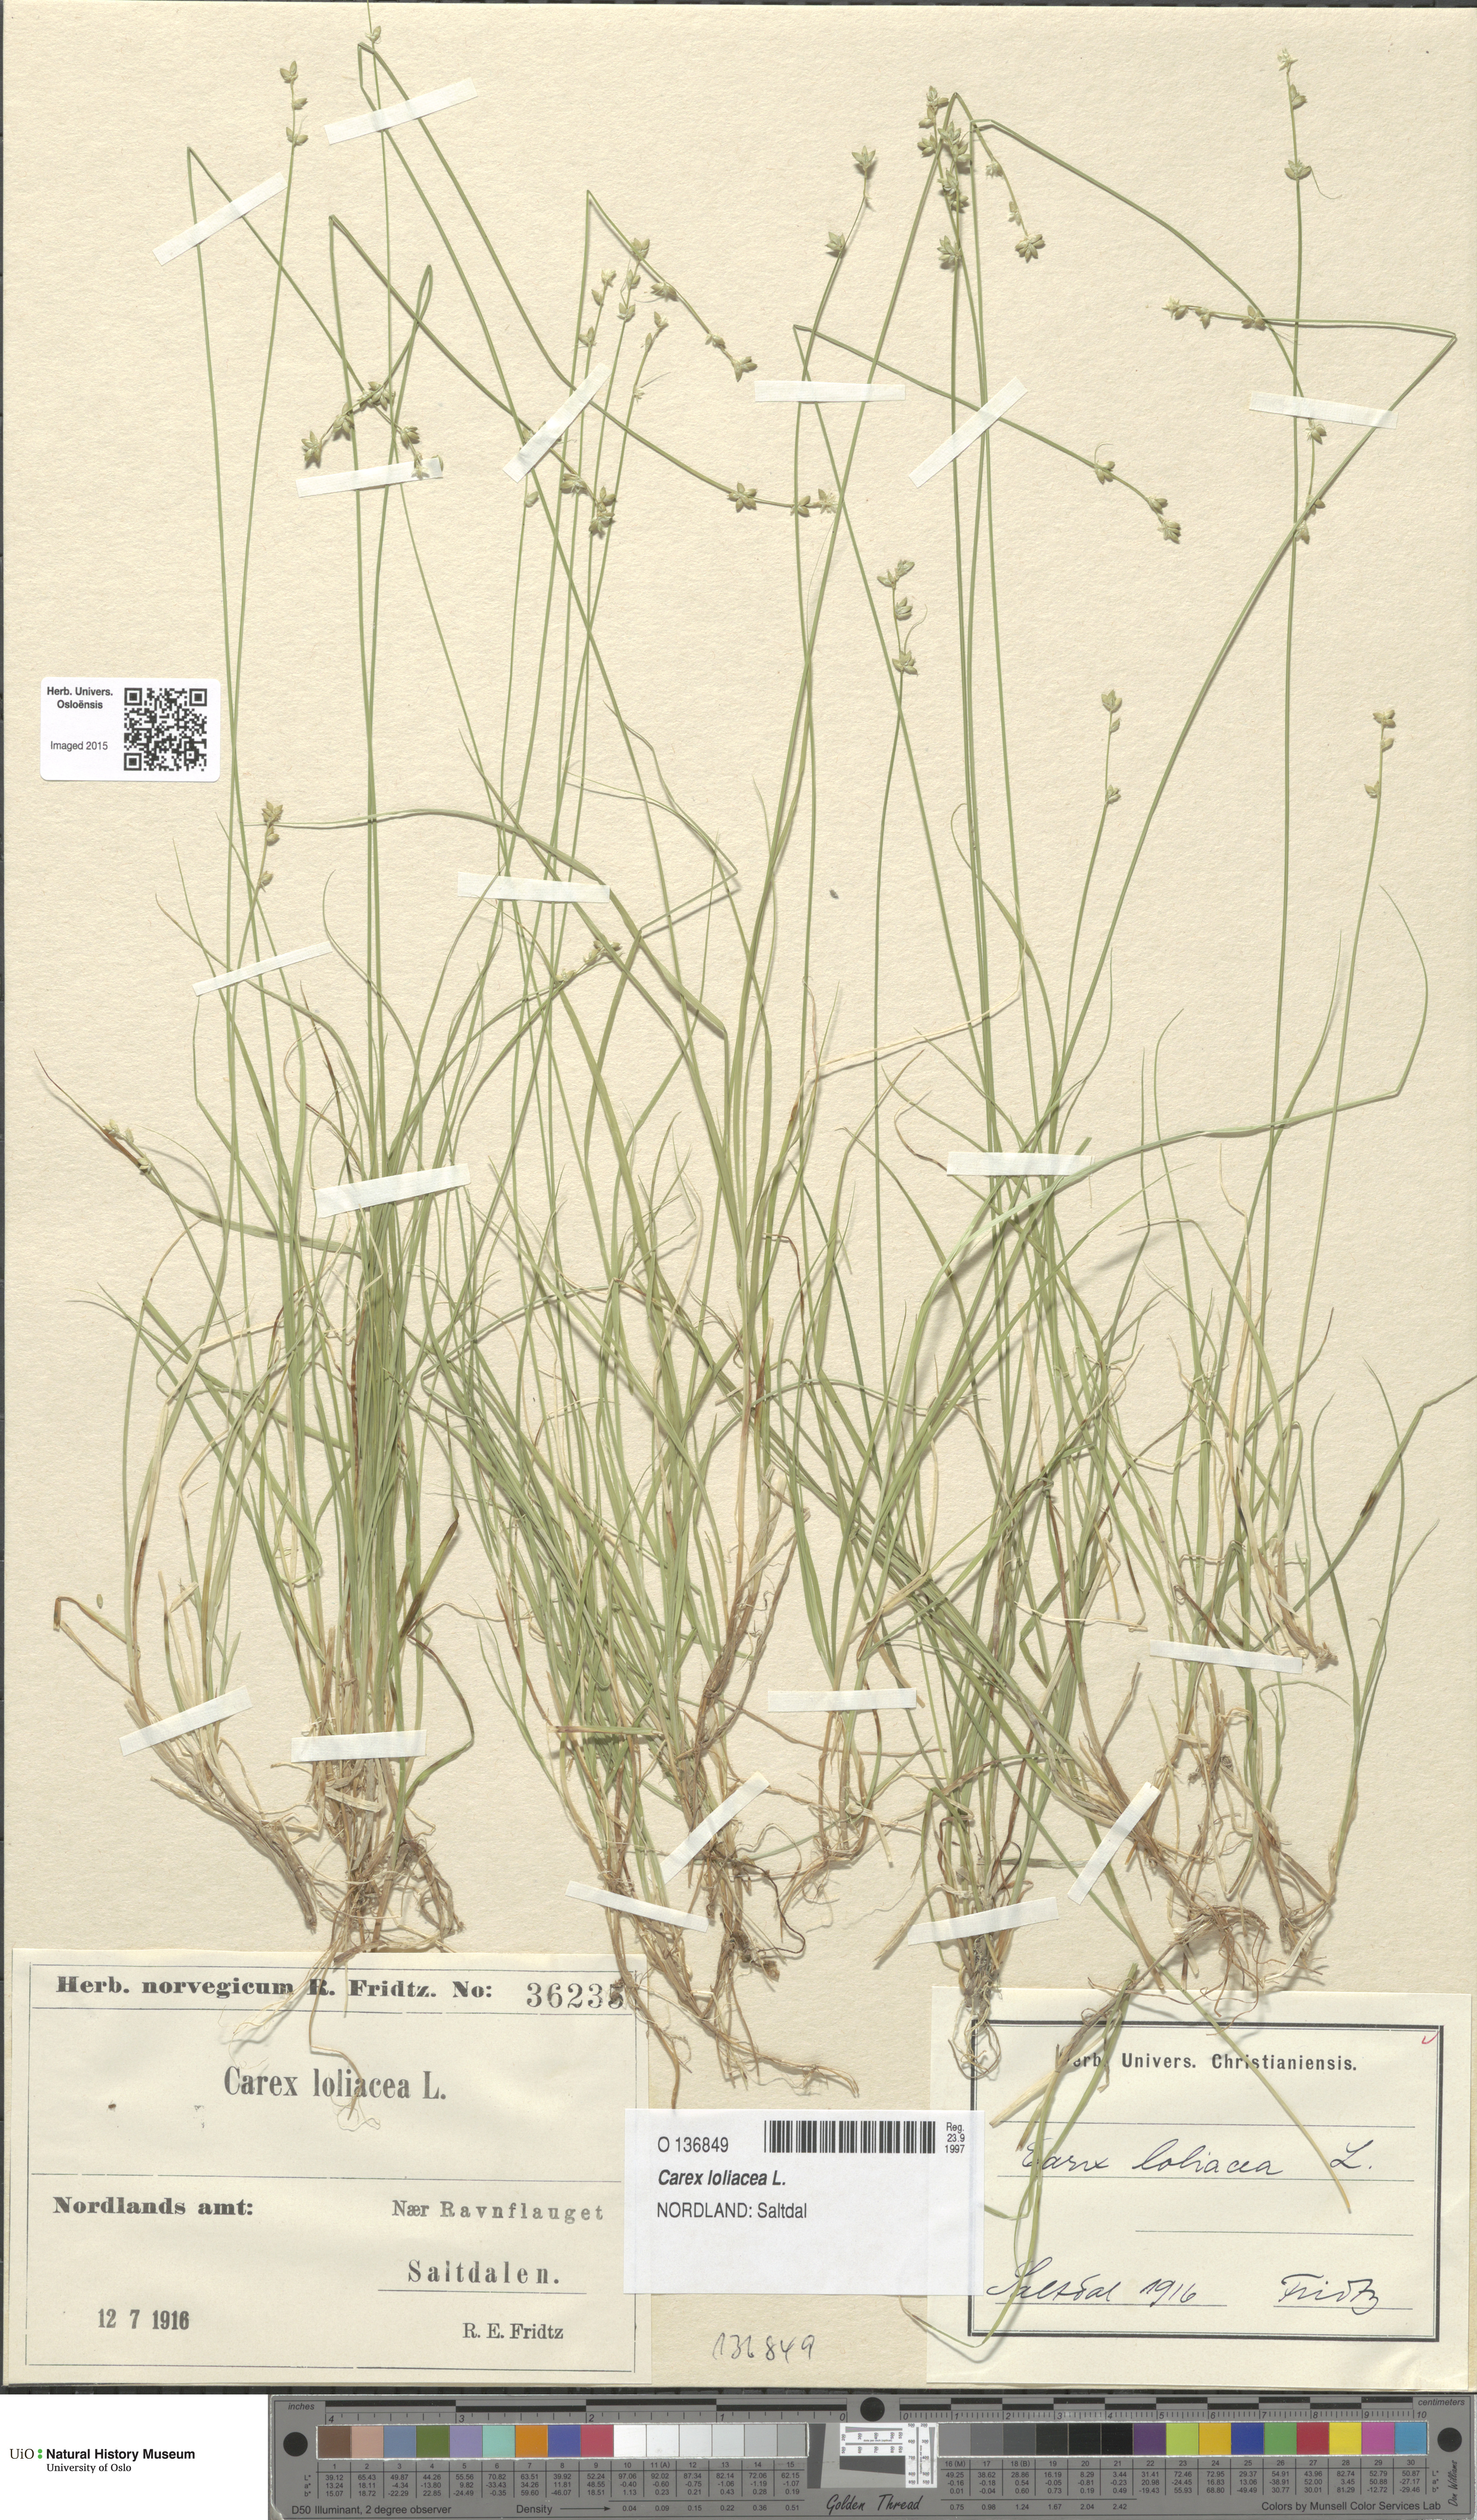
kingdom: Plantae
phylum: Tracheophyta
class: Liliopsida
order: Poales
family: Cyperaceae
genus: Carex
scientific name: Carex loliacea
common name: Ryegrass sedge
